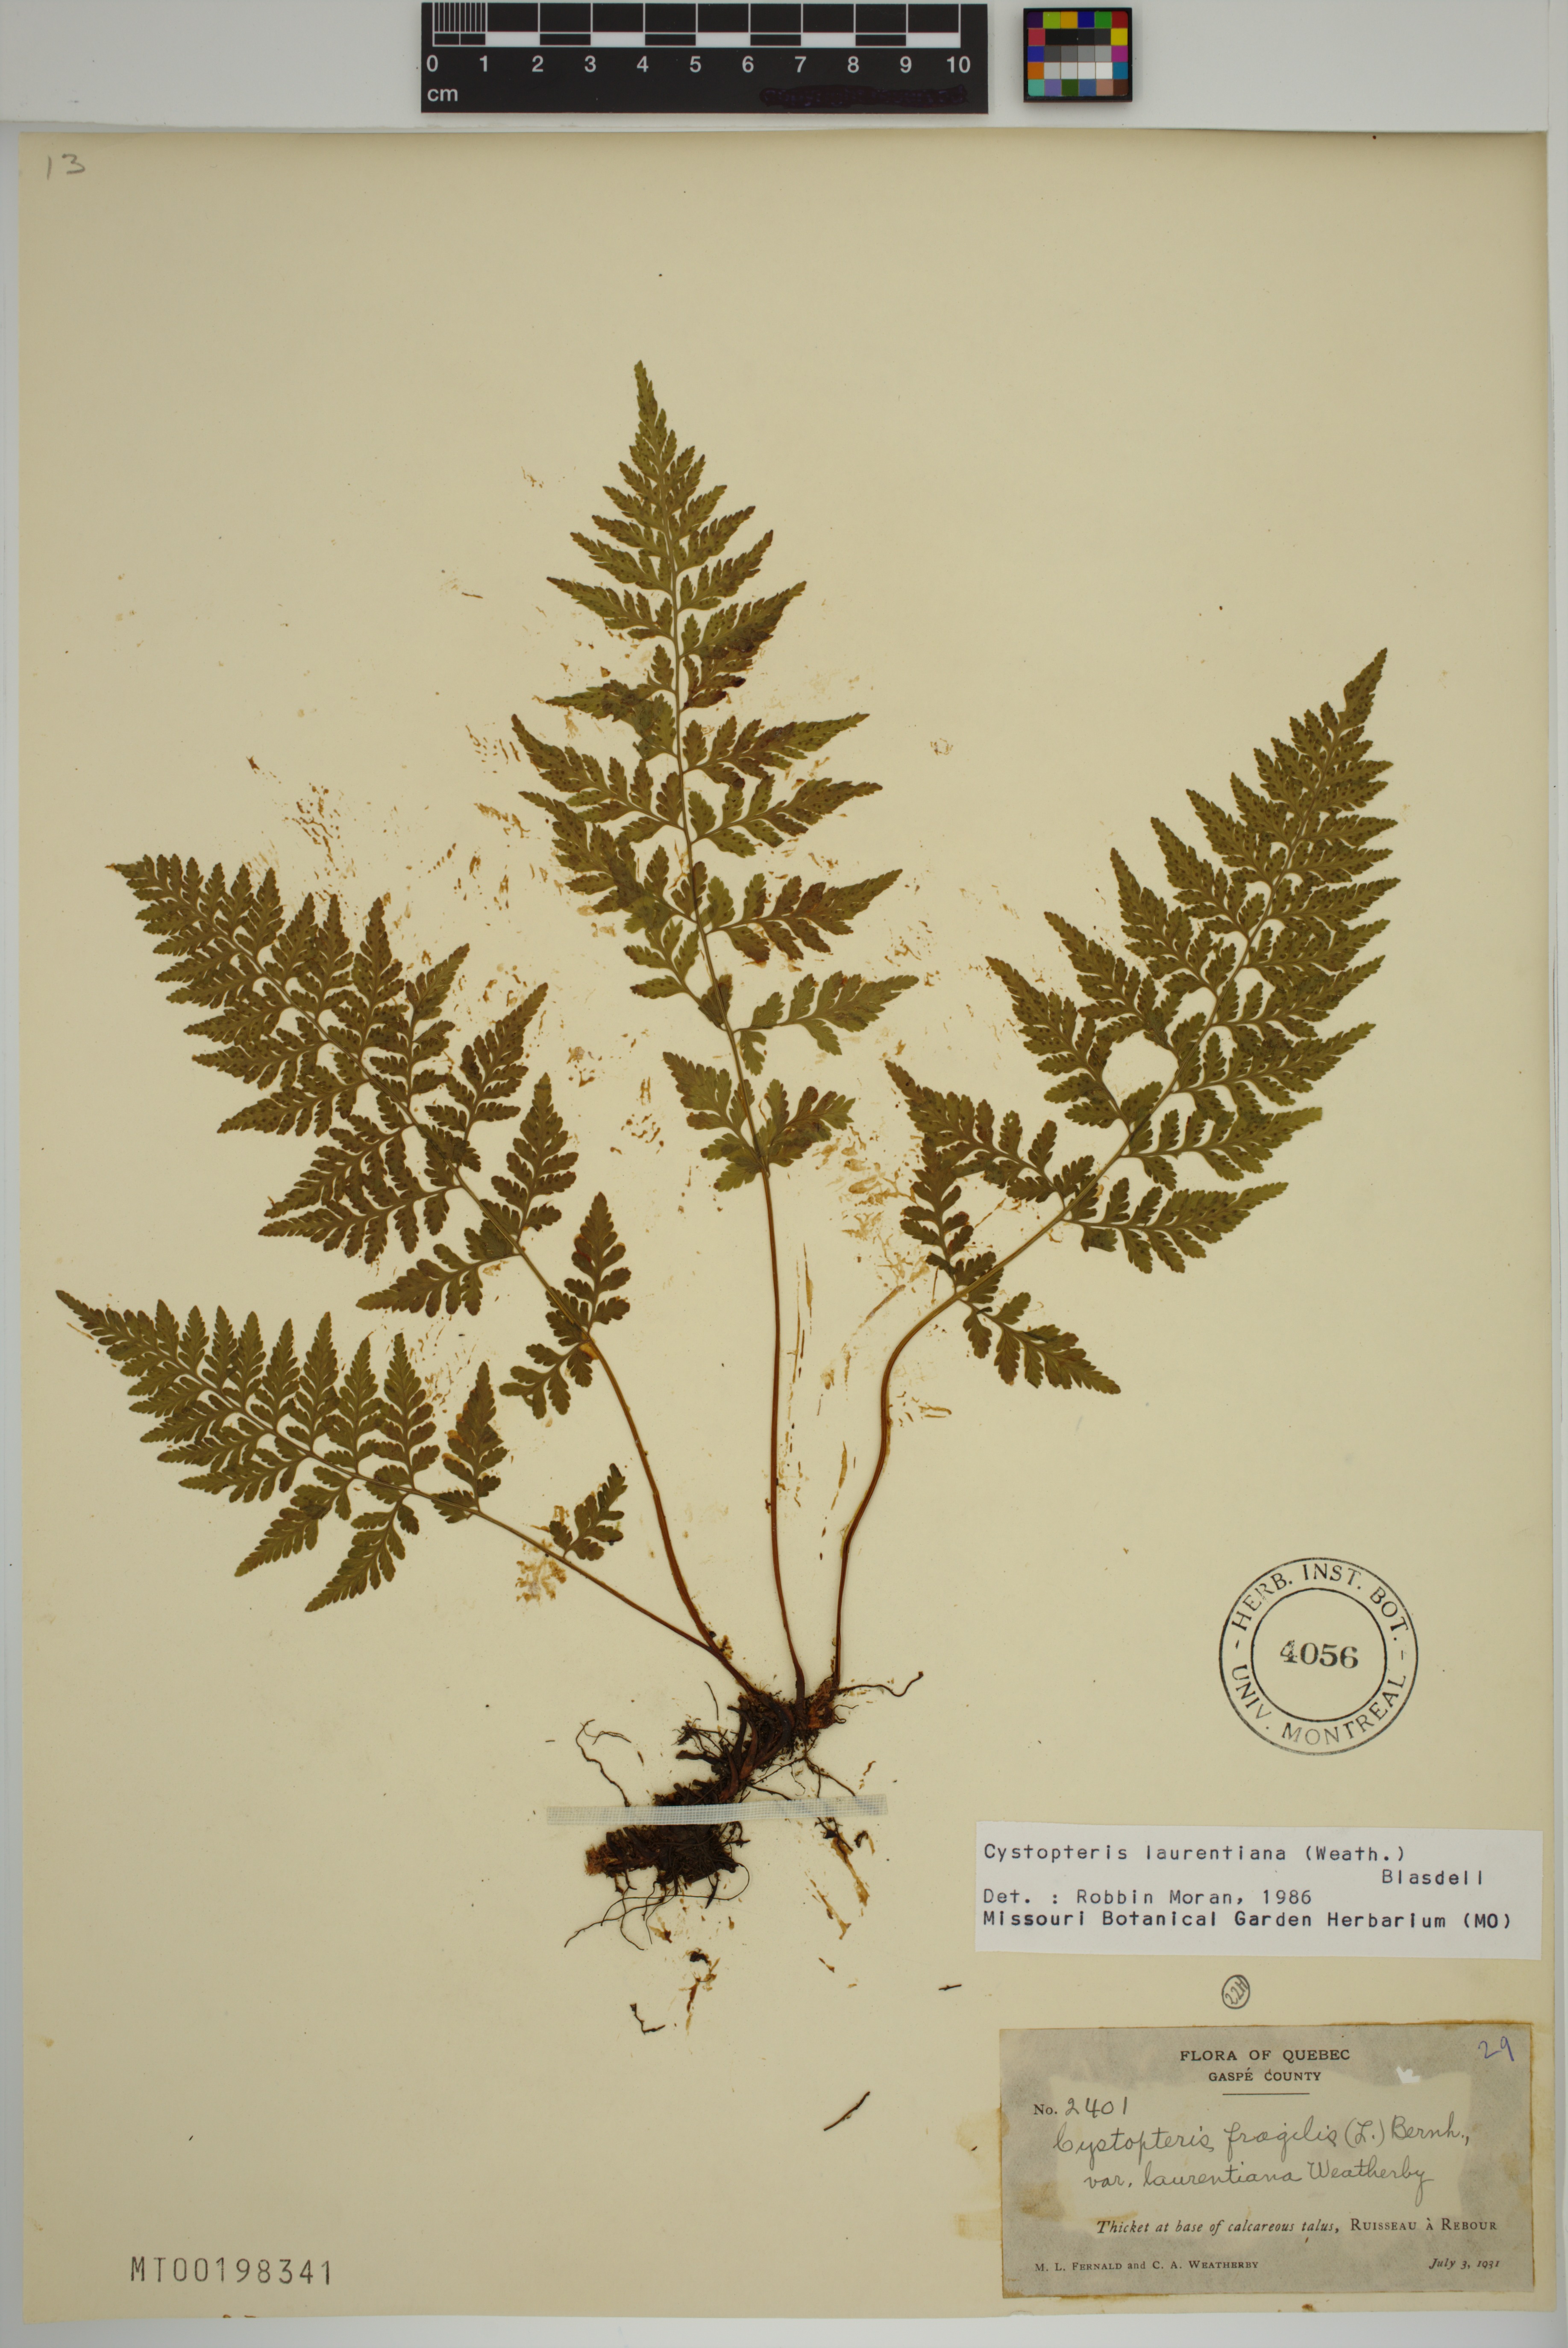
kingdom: Plantae
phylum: Tracheophyta
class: Polypodiopsida
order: Polypodiales
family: Cystopteridaceae
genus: Cystopteris
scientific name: Cystopteris laurentiana
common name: Blasdell's laurentian bladder fern
